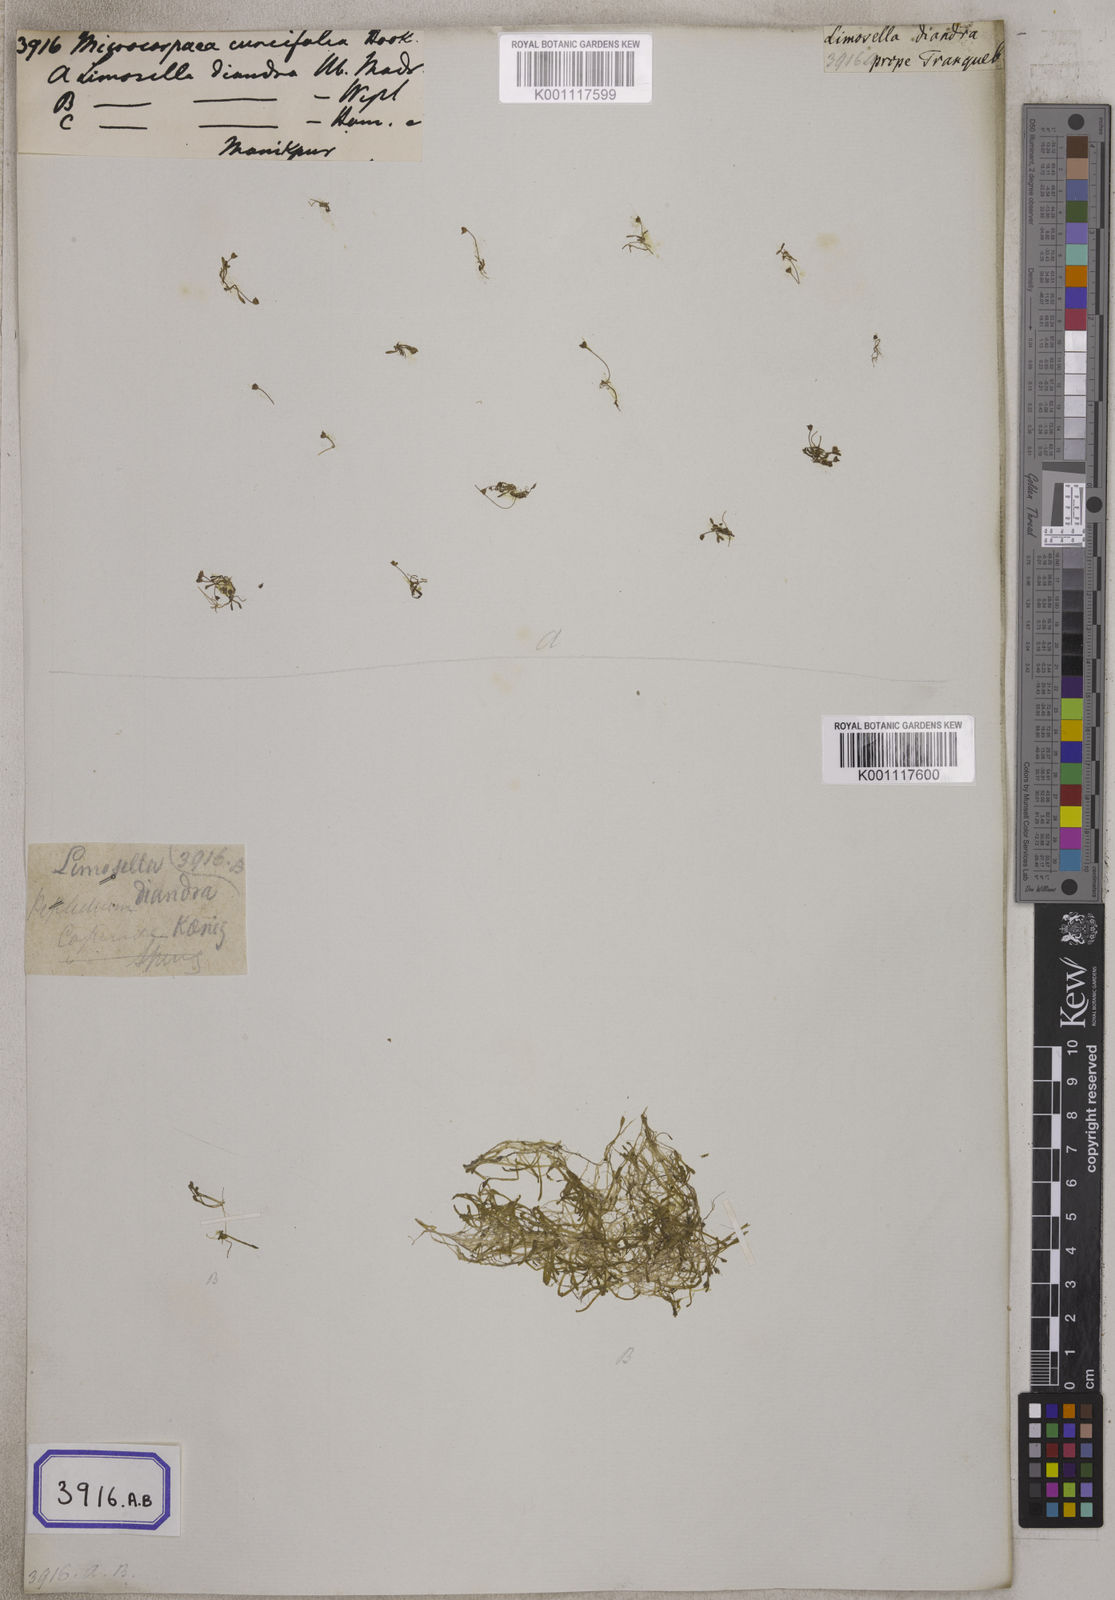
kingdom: Plantae
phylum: Tracheophyta
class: Magnoliopsida
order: Lamiales
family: Phrymaceae
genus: Glossostigma
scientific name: Glossostigma diandrum
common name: Mudmat
